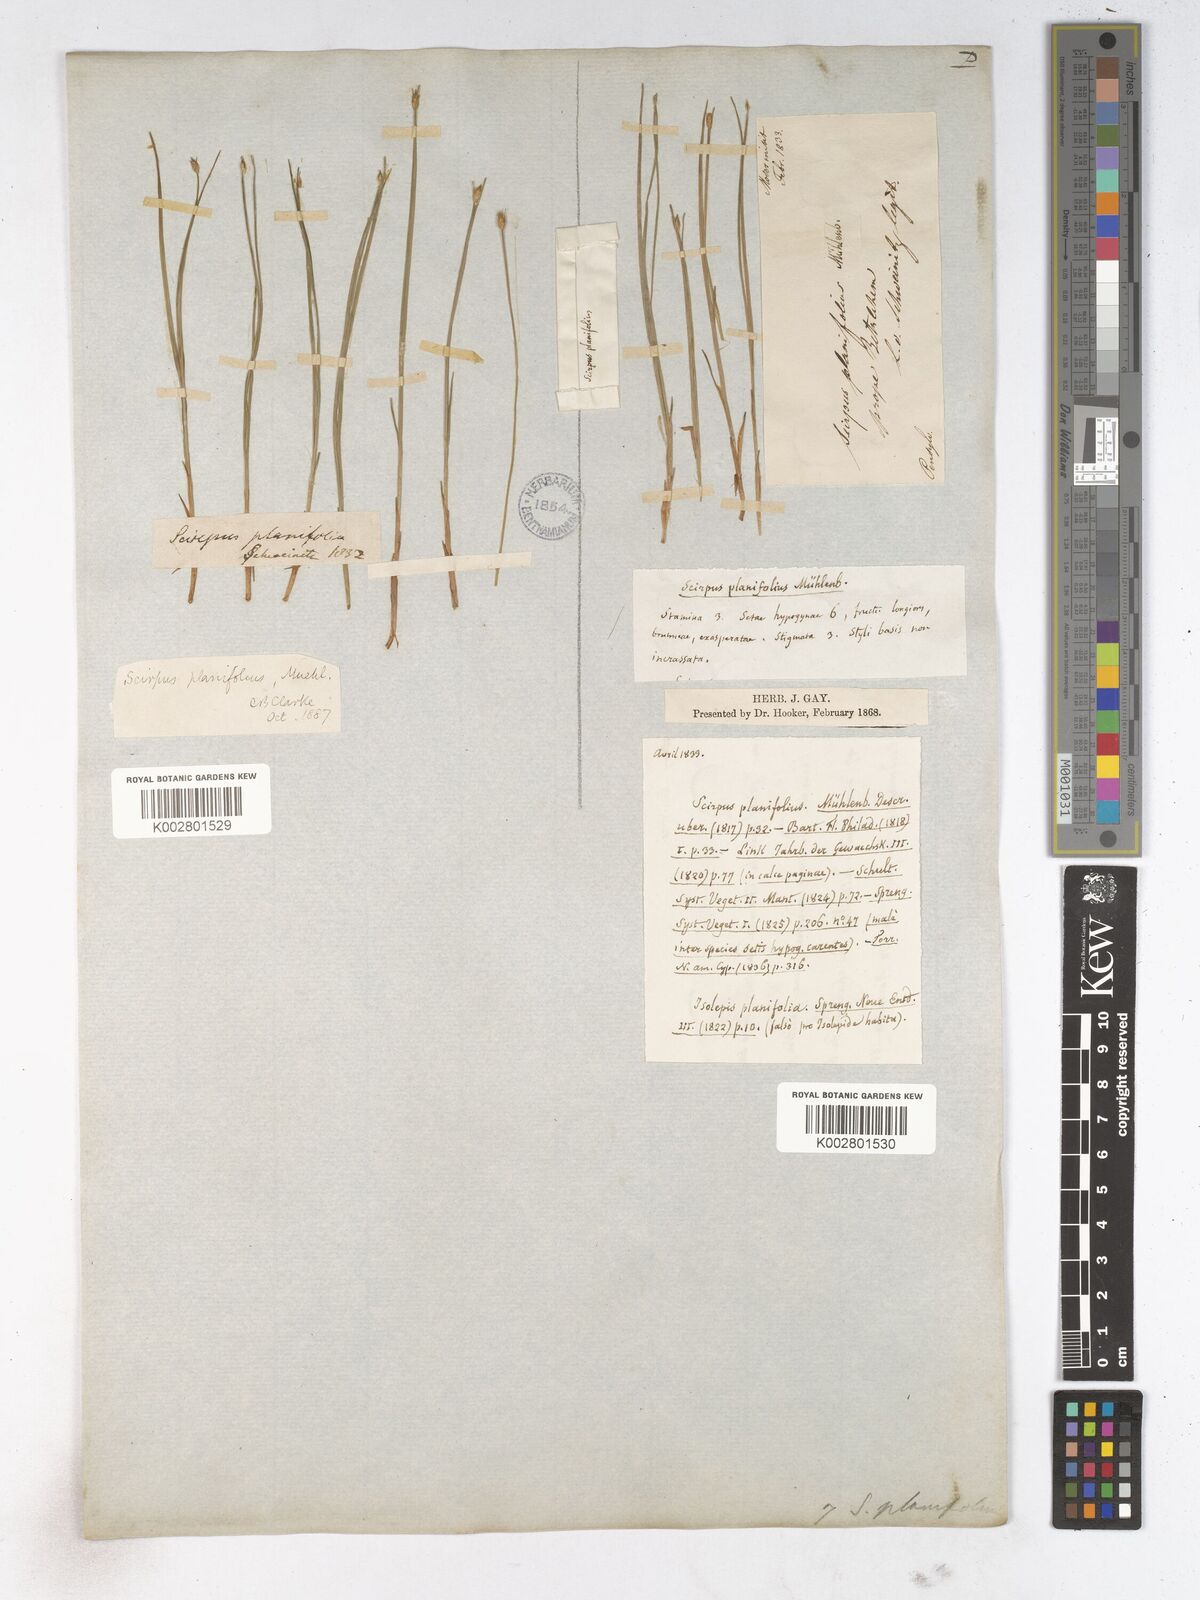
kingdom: Plantae
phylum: Tracheophyta
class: Liliopsida
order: Poales
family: Cyperaceae
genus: Trichophorum
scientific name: Trichophorum planifolium
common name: Bashful bulrush
